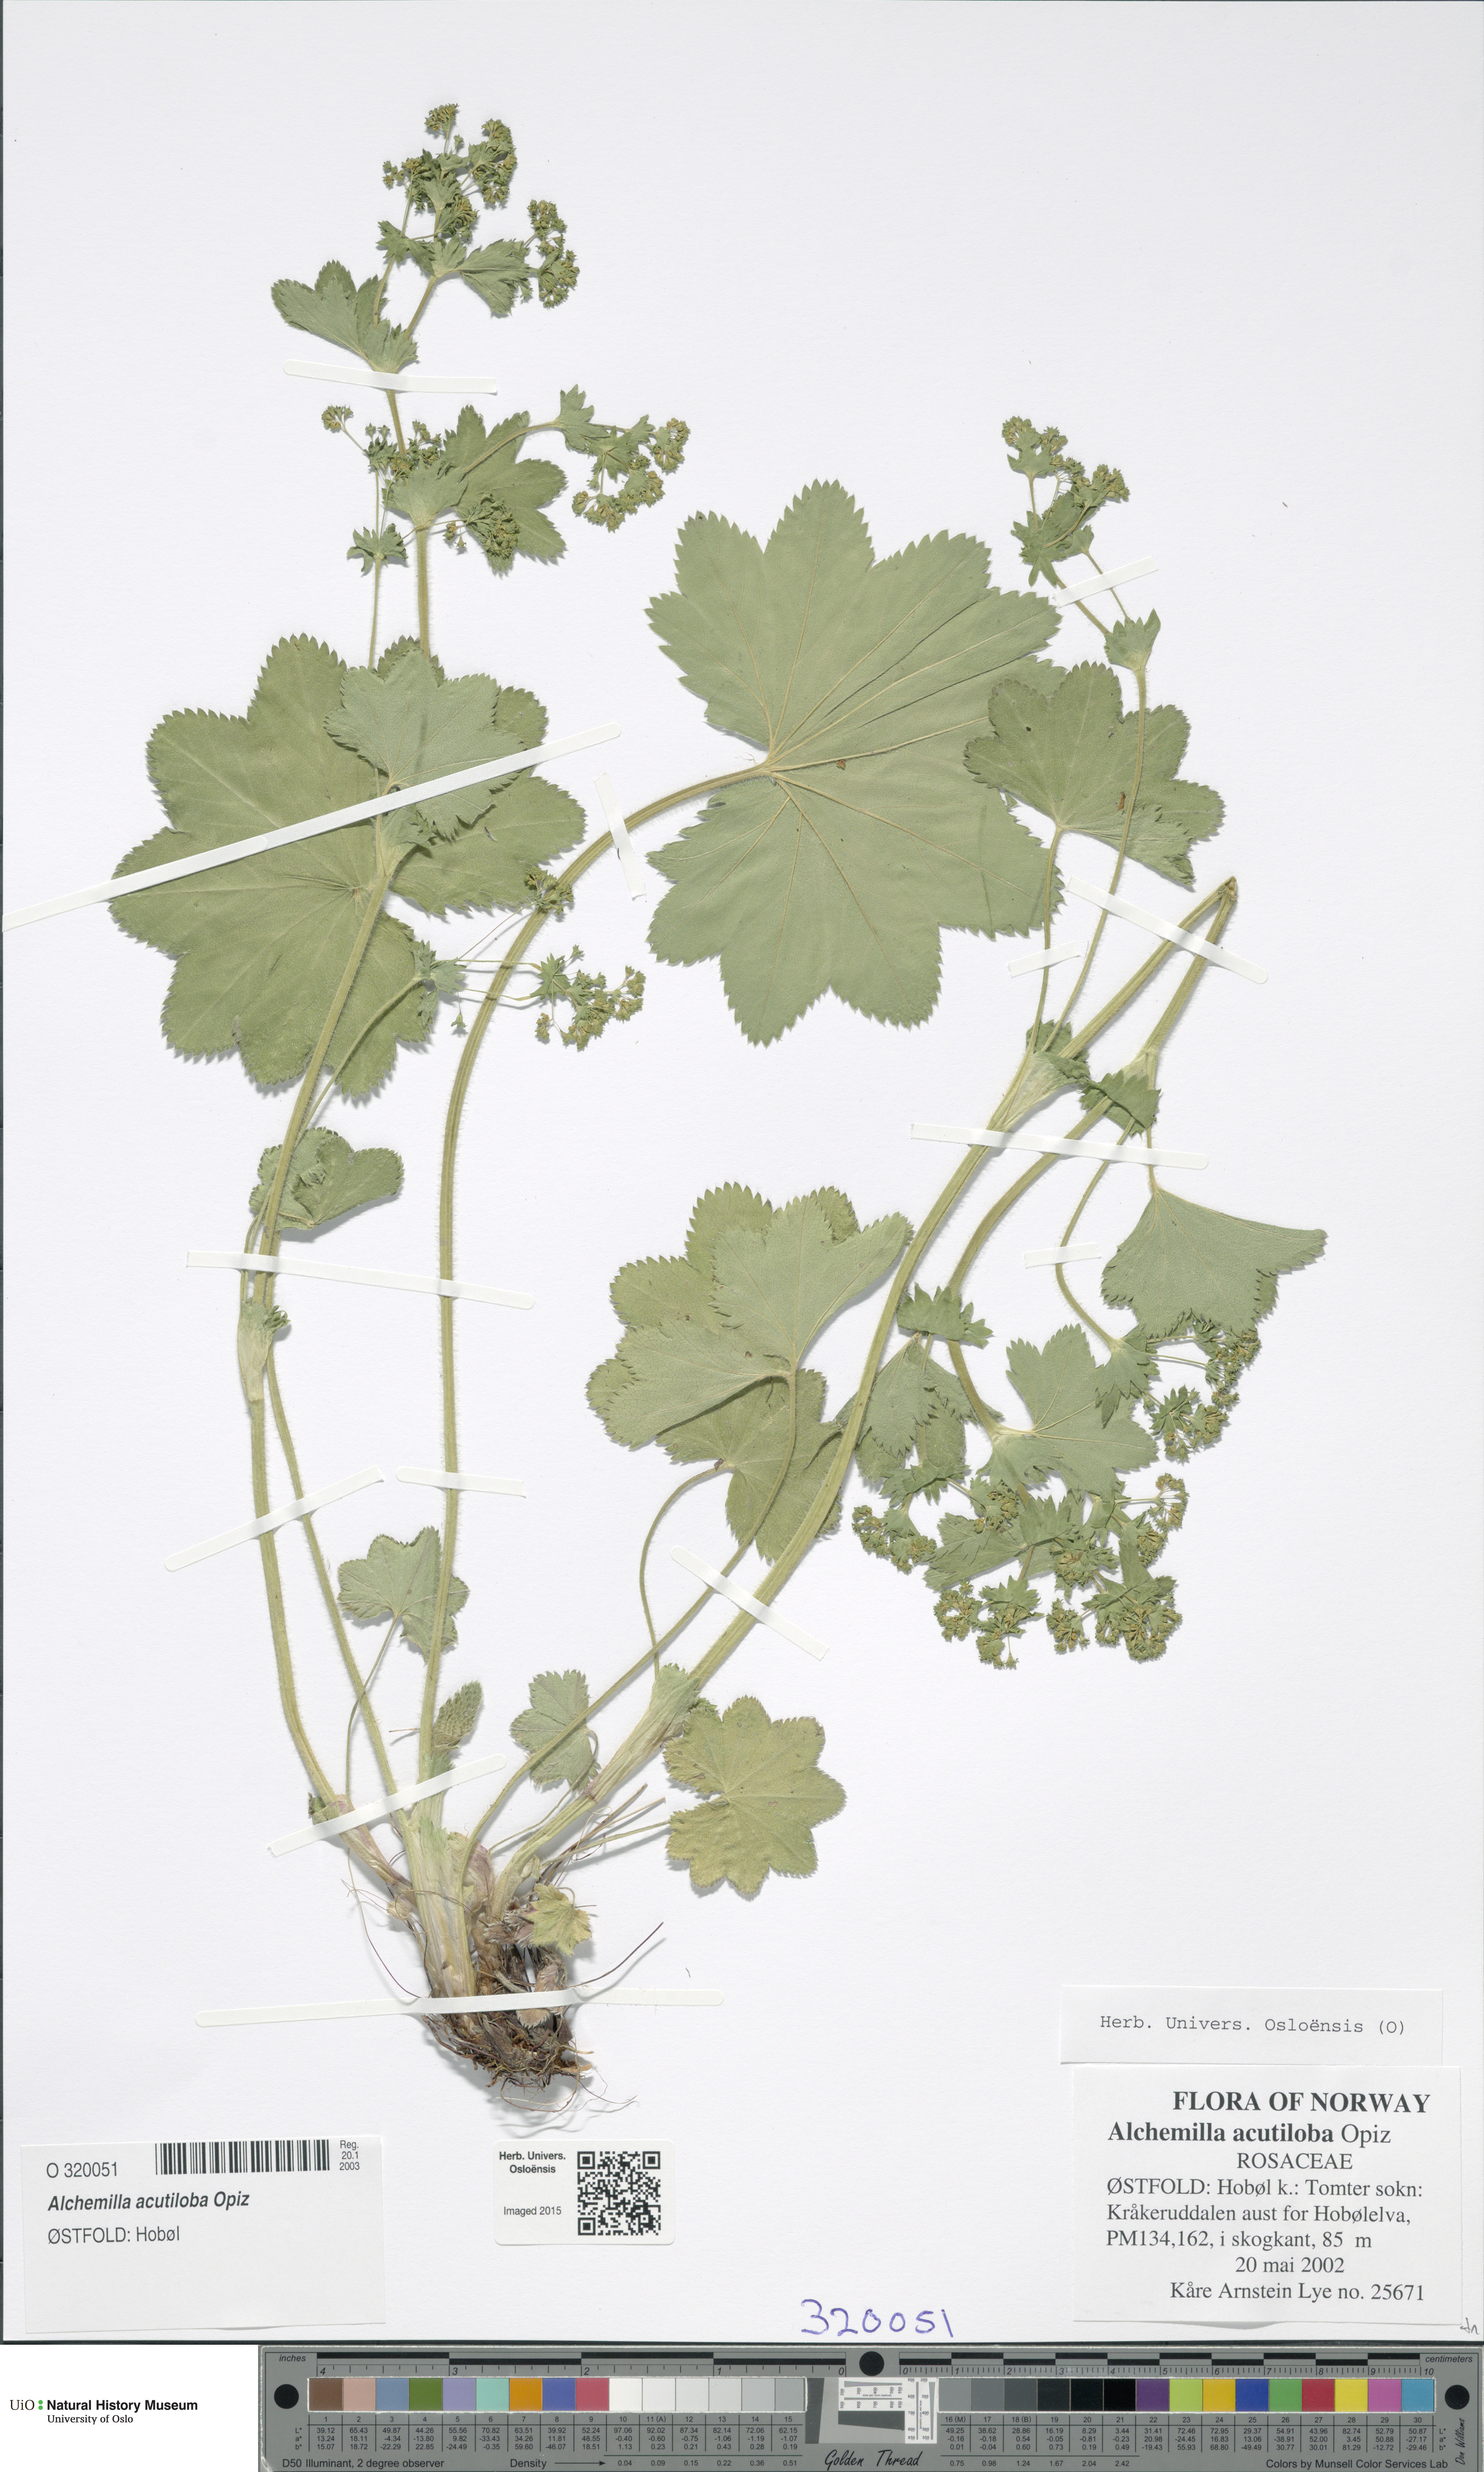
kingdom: Plantae
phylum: Tracheophyta
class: Magnoliopsida
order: Rosales
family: Rosaceae
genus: Alchemilla
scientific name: Alchemilla vulgaris
